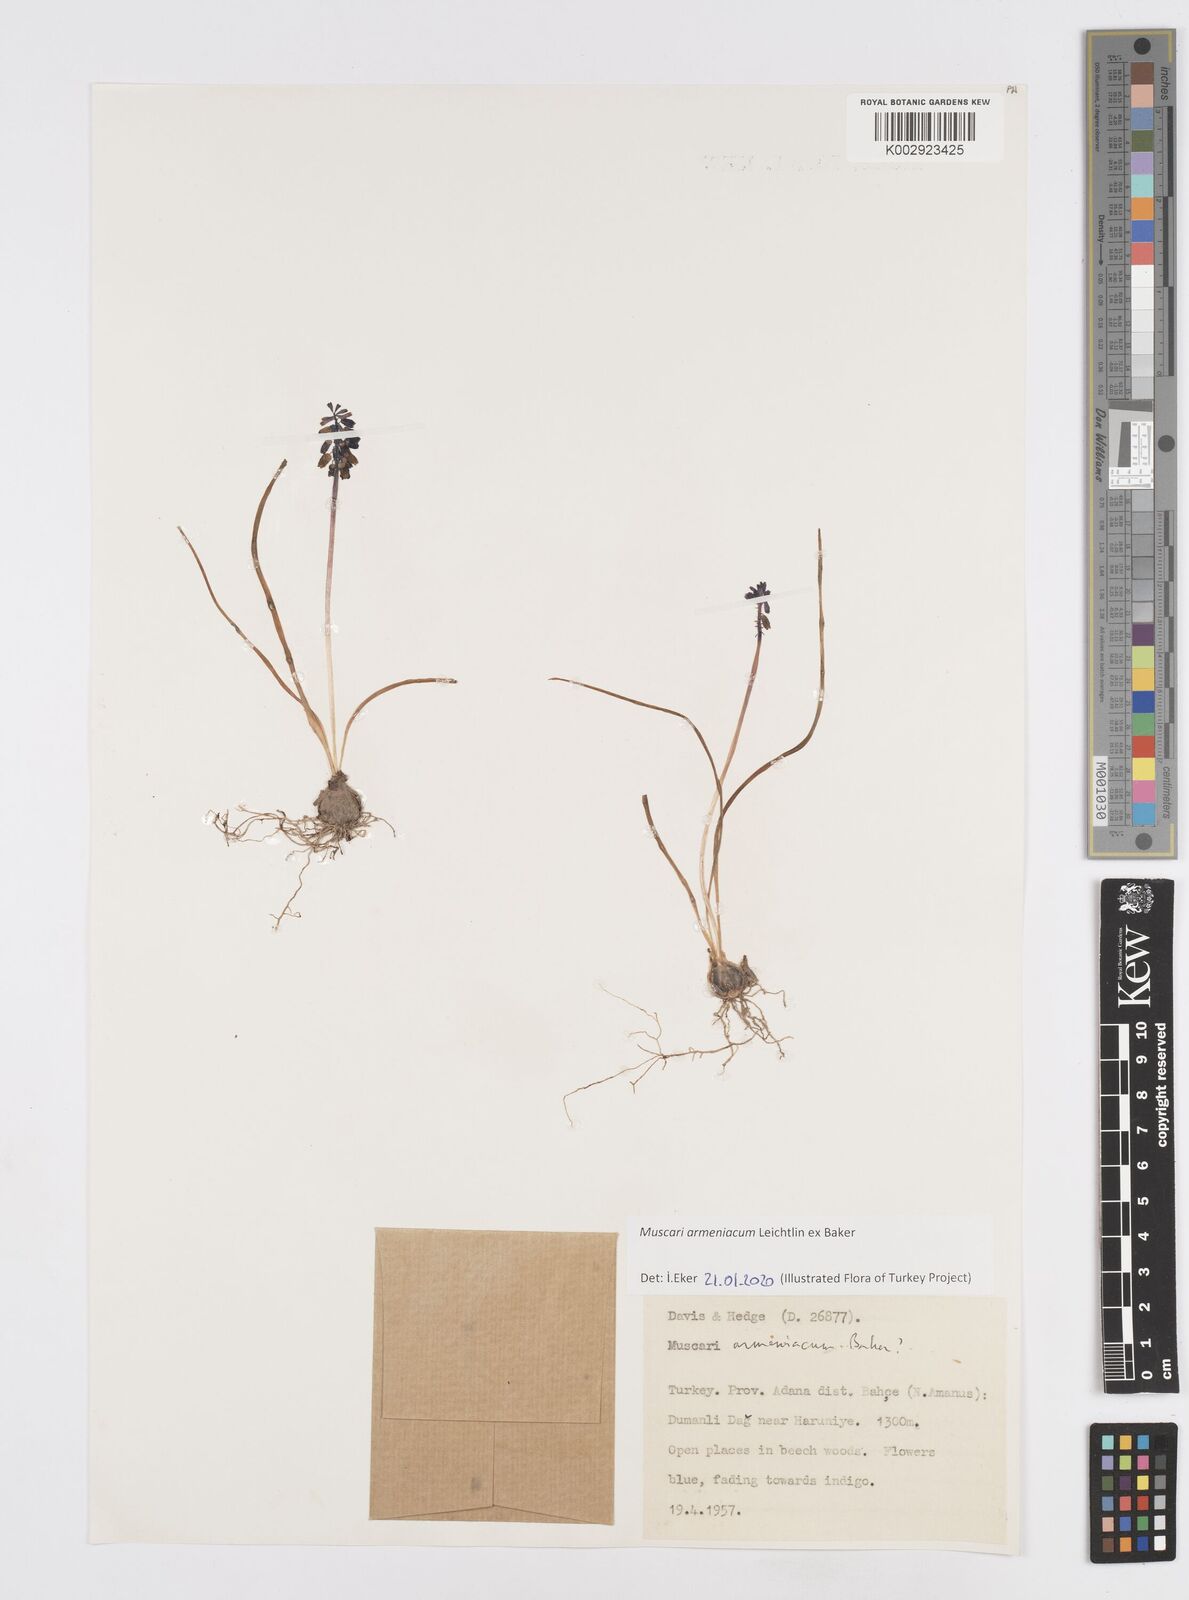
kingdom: Plantae
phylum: Tracheophyta
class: Liliopsida
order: Asparagales
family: Asparagaceae
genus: Muscari
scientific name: Muscari neglectum
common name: Grape-hyacinth
